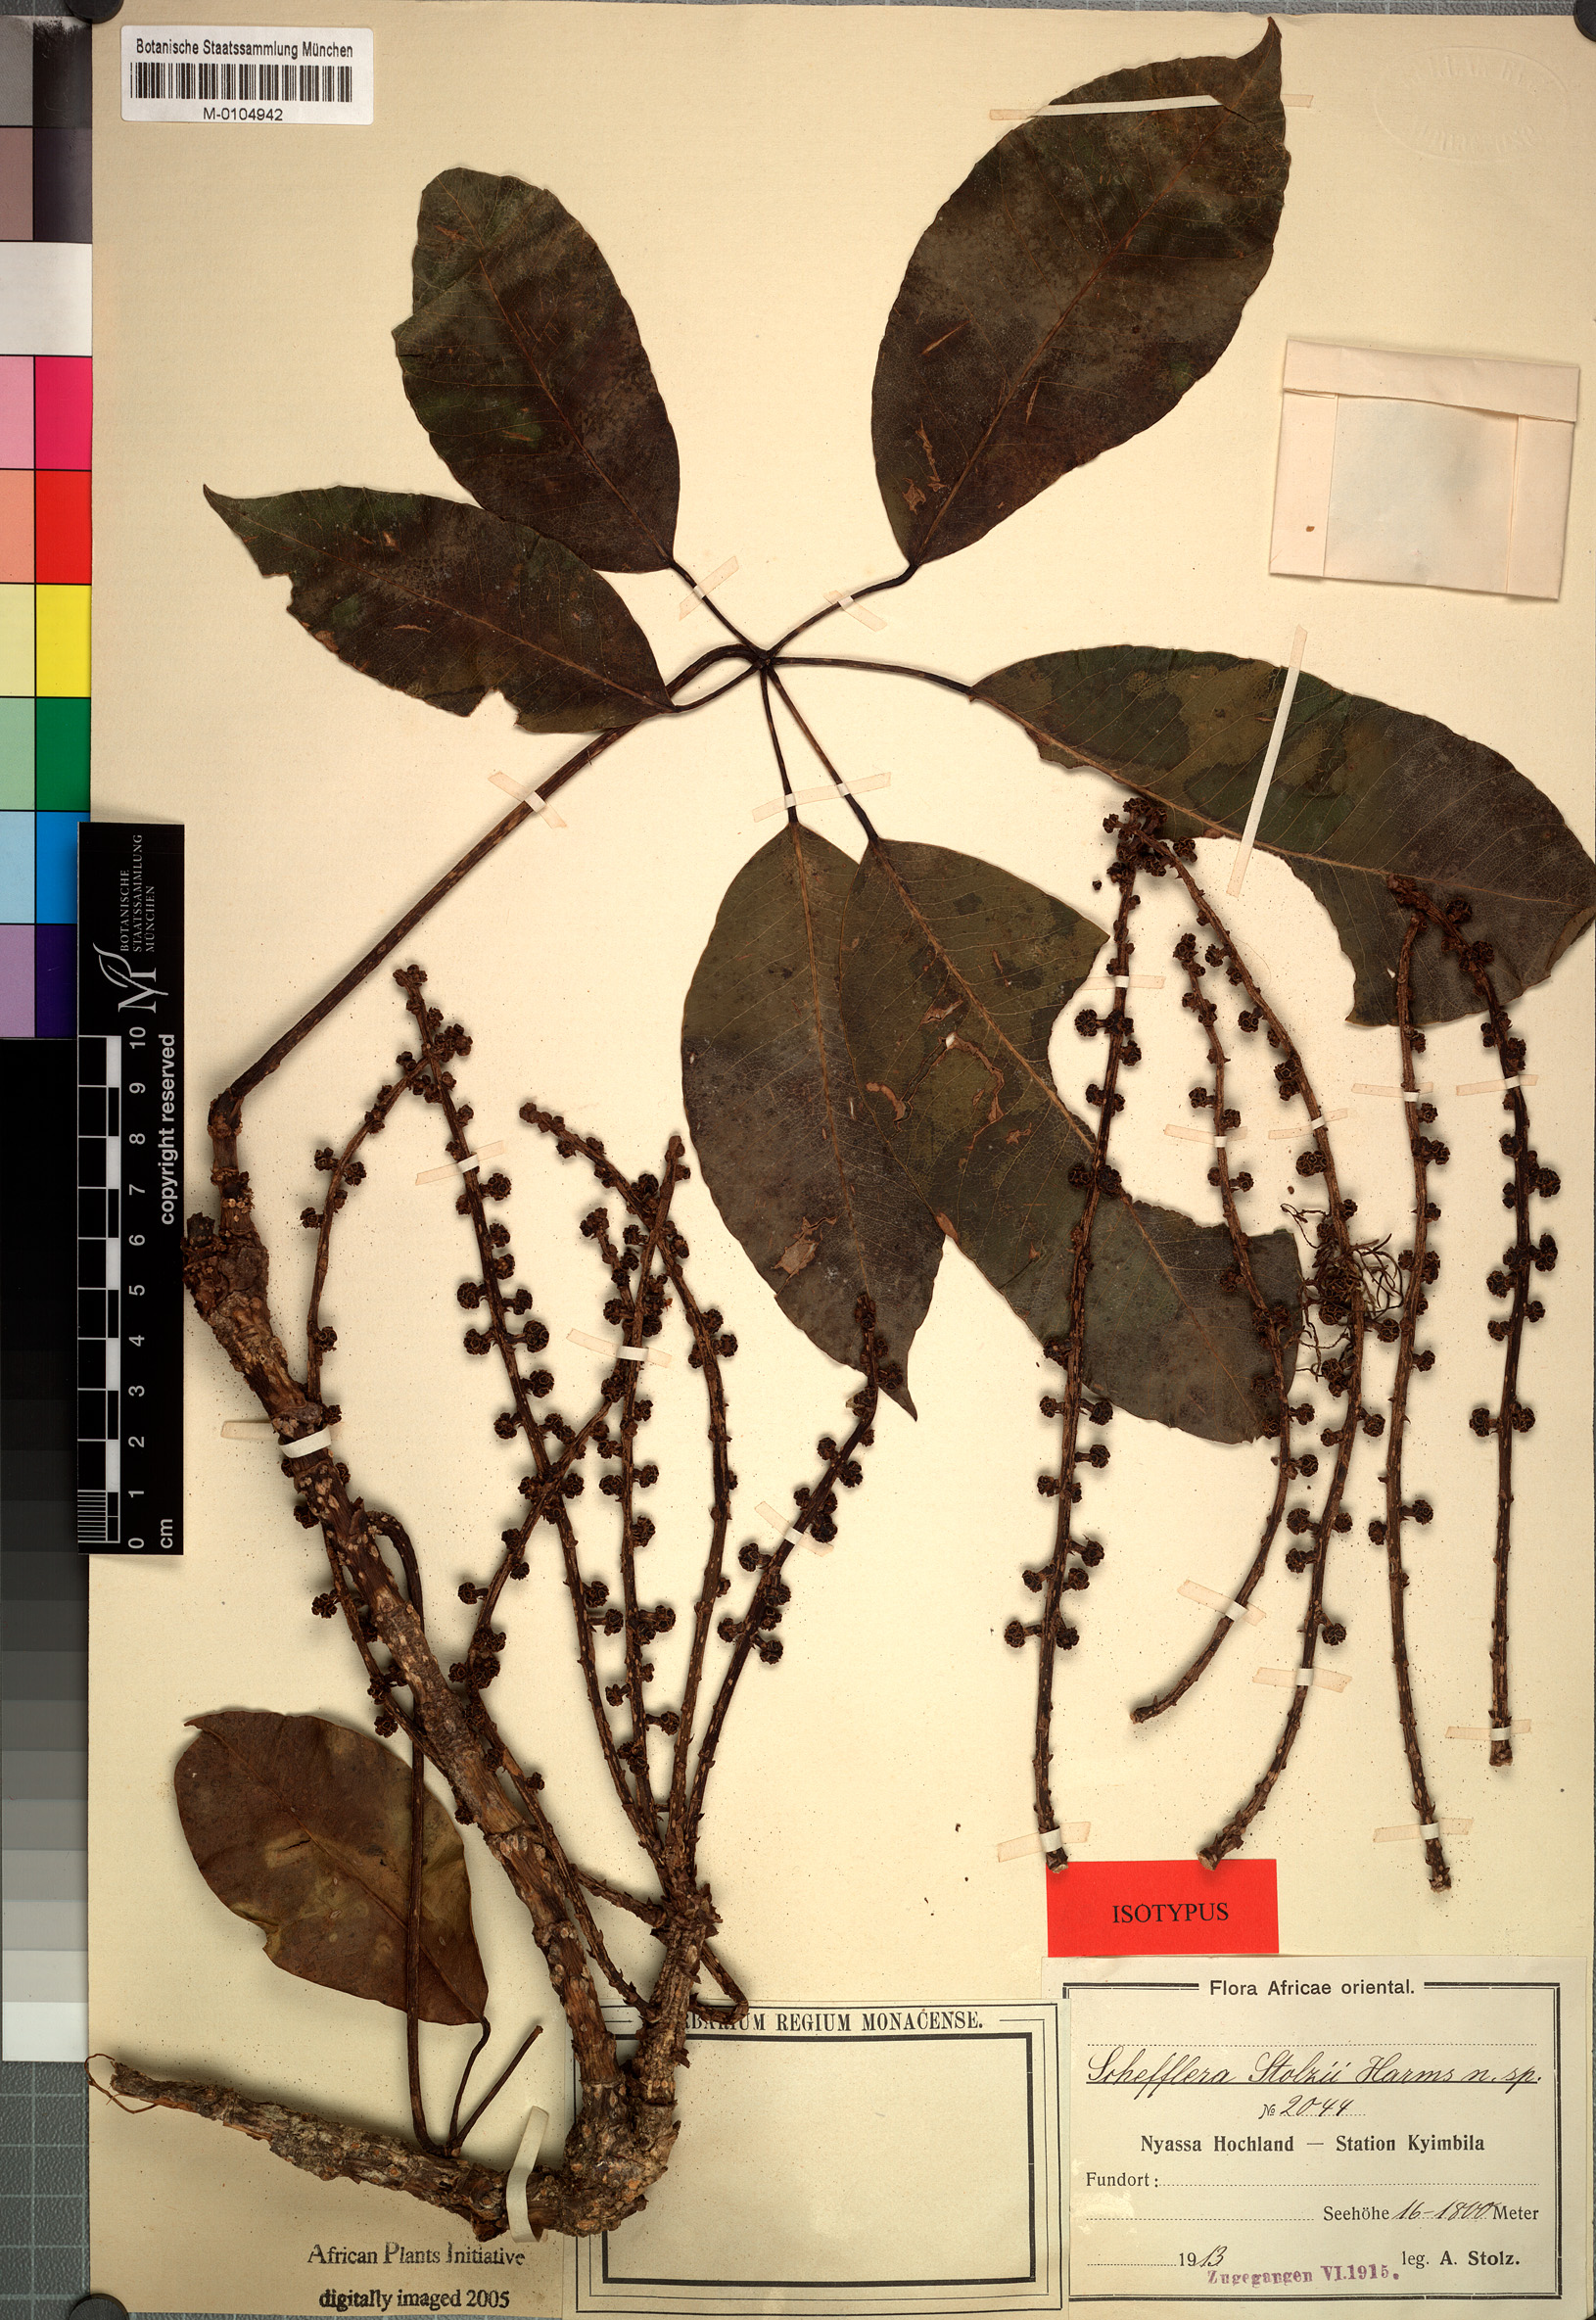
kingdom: Plantae
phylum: Tracheophyta
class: Magnoliopsida
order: Apiales
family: Araliaceae
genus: Astropanax
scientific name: Astropanax stolzii
